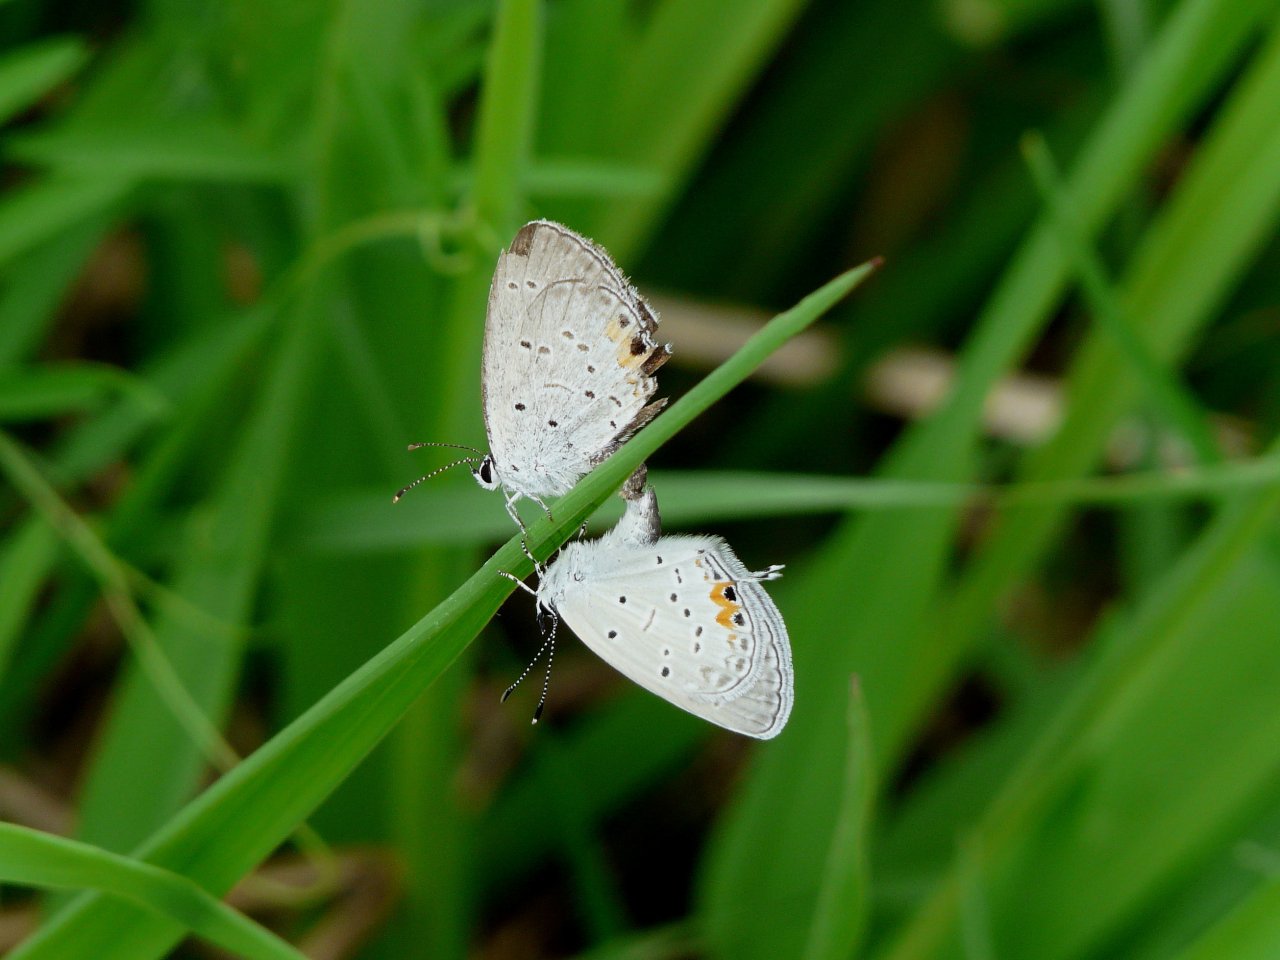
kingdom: Animalia
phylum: Arthropoda
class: Insecta
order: Lepidoptera
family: Lycaenidae
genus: Elkalyce
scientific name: Elkalyce comyntas
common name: Eastern Tailed-Blue
